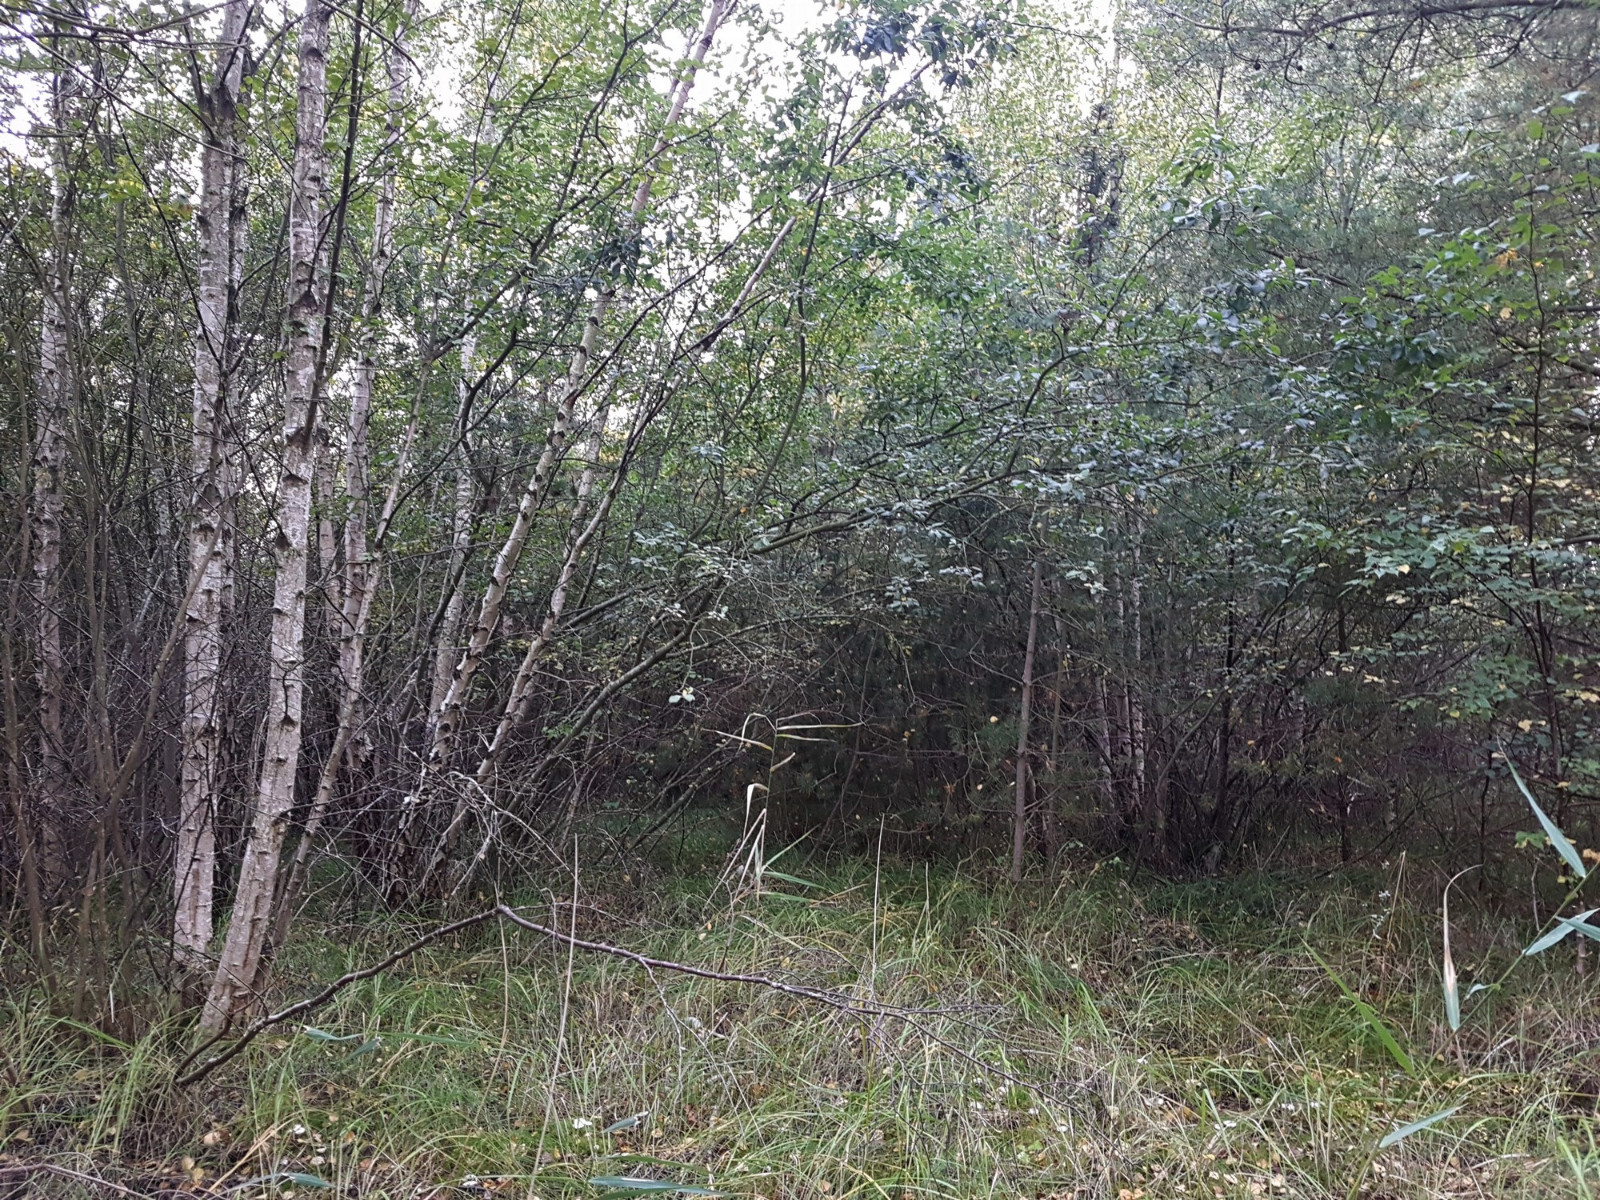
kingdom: Fungi
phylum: Basidiomycota
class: Agaricomycetes
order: Russulales
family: Russulaceae
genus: Lactarius
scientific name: Lactarius scoticus
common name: tørve-mælkehat
